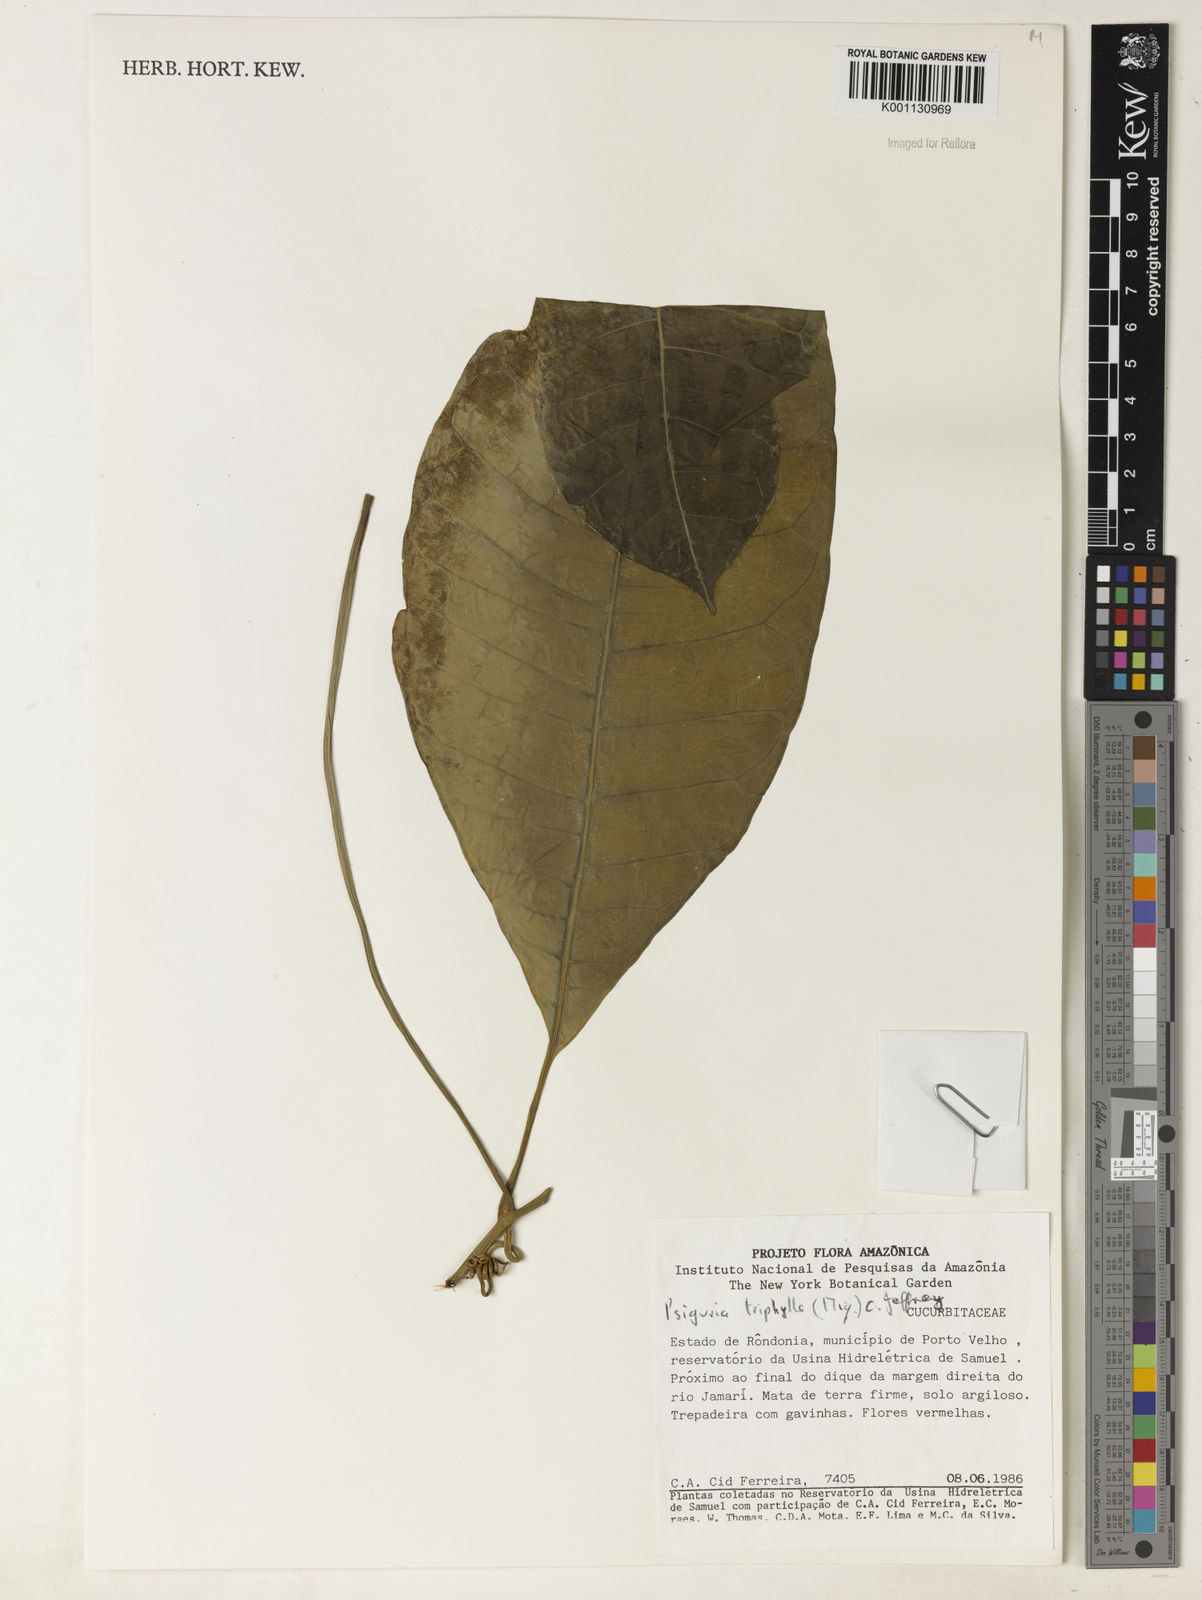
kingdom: Plantae
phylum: Tracheophyta
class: Magnoliopsida
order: Cucurbitales
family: Cucurbitaceae
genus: Psiguria
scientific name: Psiguria triphylla
